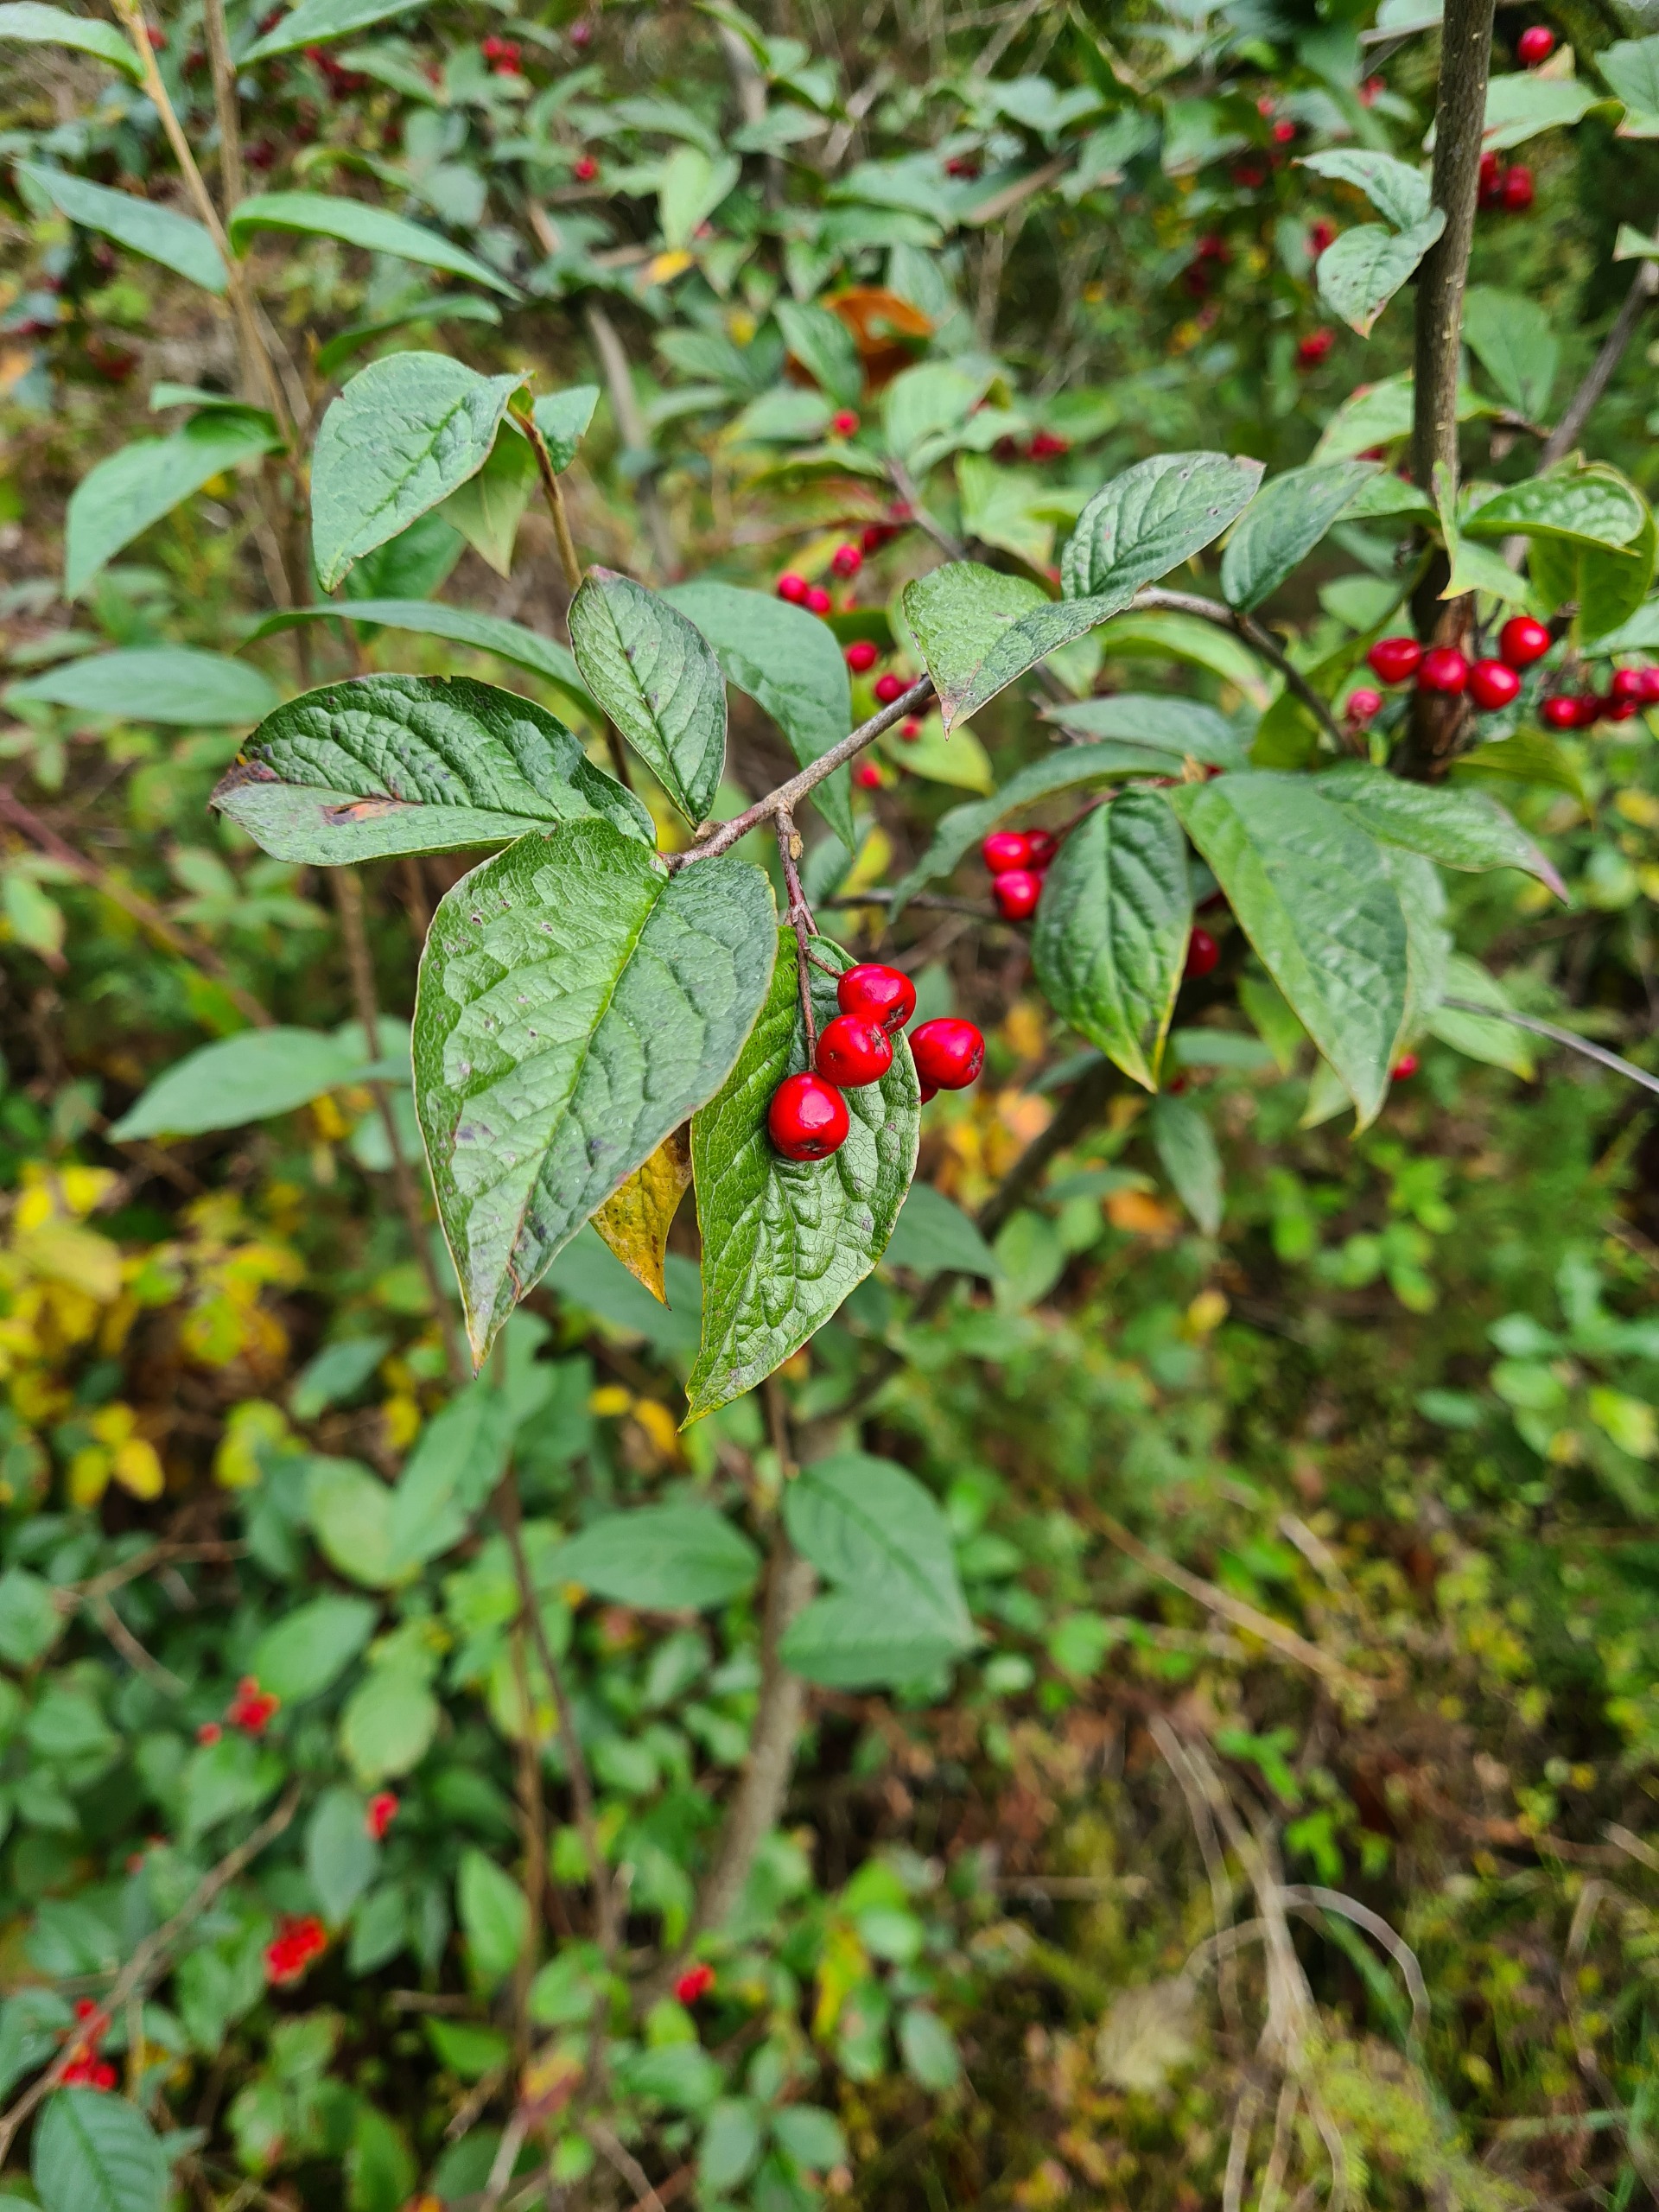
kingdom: Plantae
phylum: Tracheophyta
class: Magnoliopsida
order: Rosales
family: Rosaceae
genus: Cotoneaster
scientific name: Cotoneaster bullatus
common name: Storbladet dværgmispel
